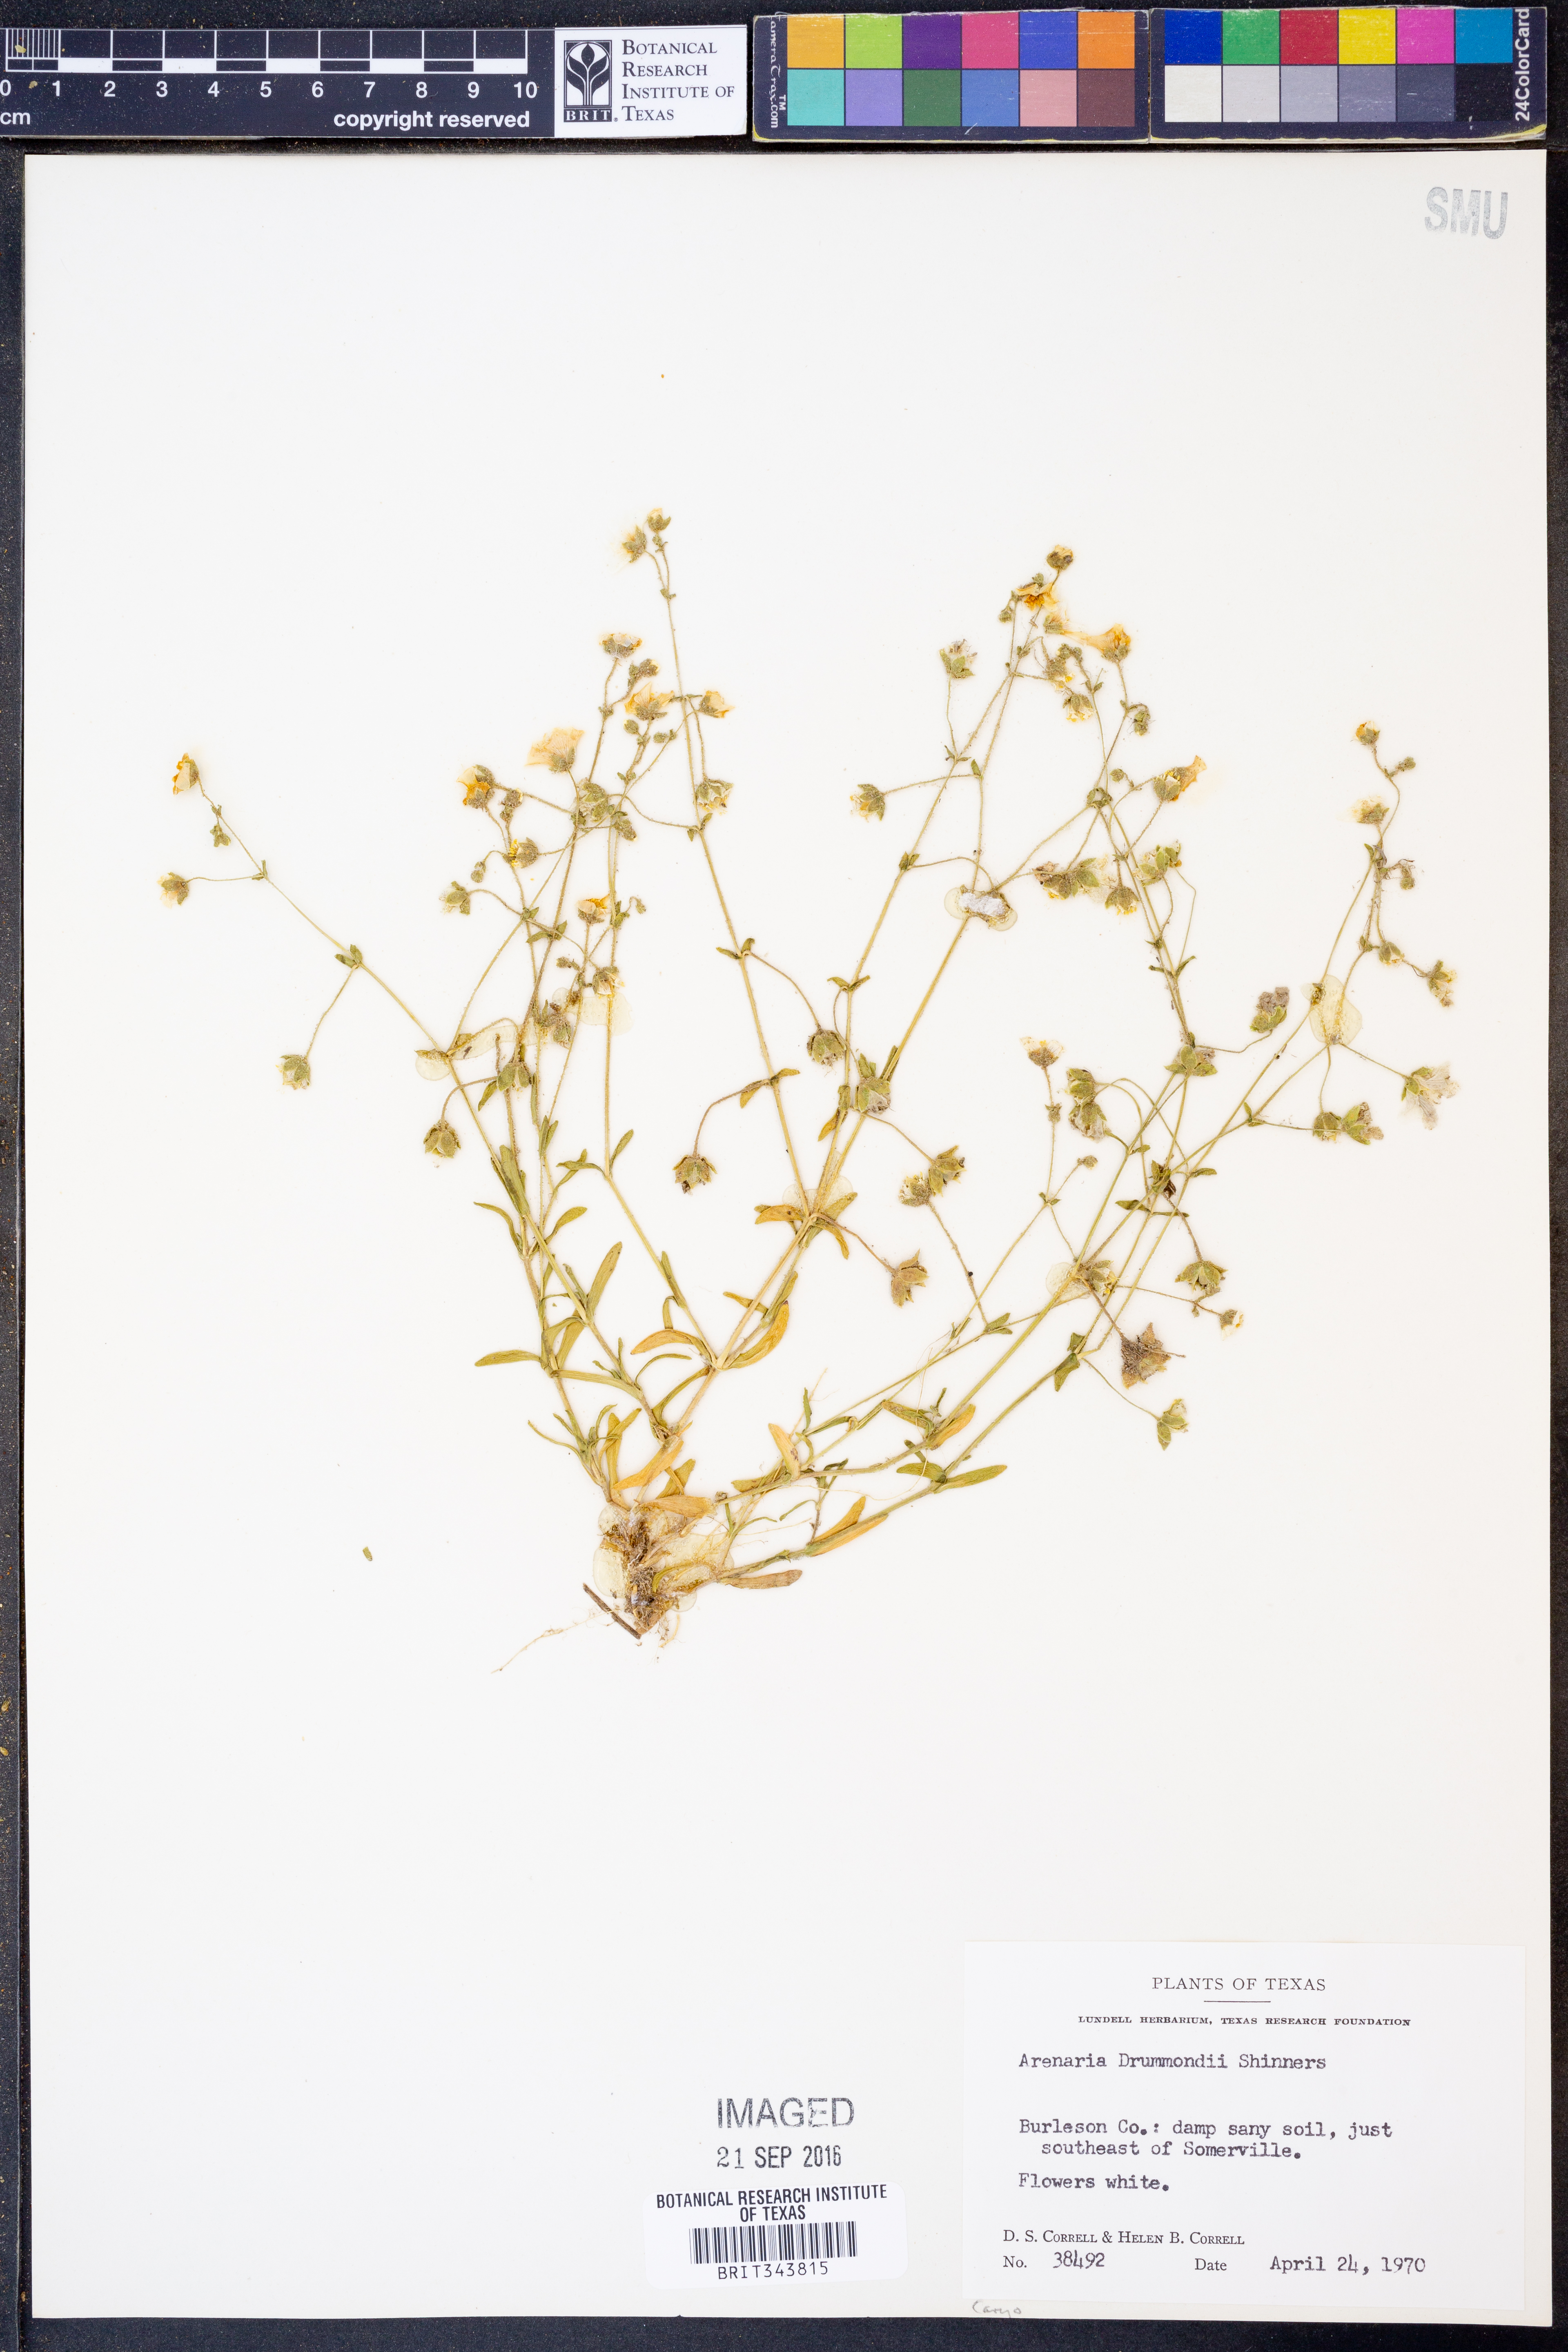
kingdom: Plantae
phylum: Tracheophyta
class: Magnoliopsida
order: Caryophyllales
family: Caryophyllaceae
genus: Geocarpon
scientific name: Geocarpon nuttallii
